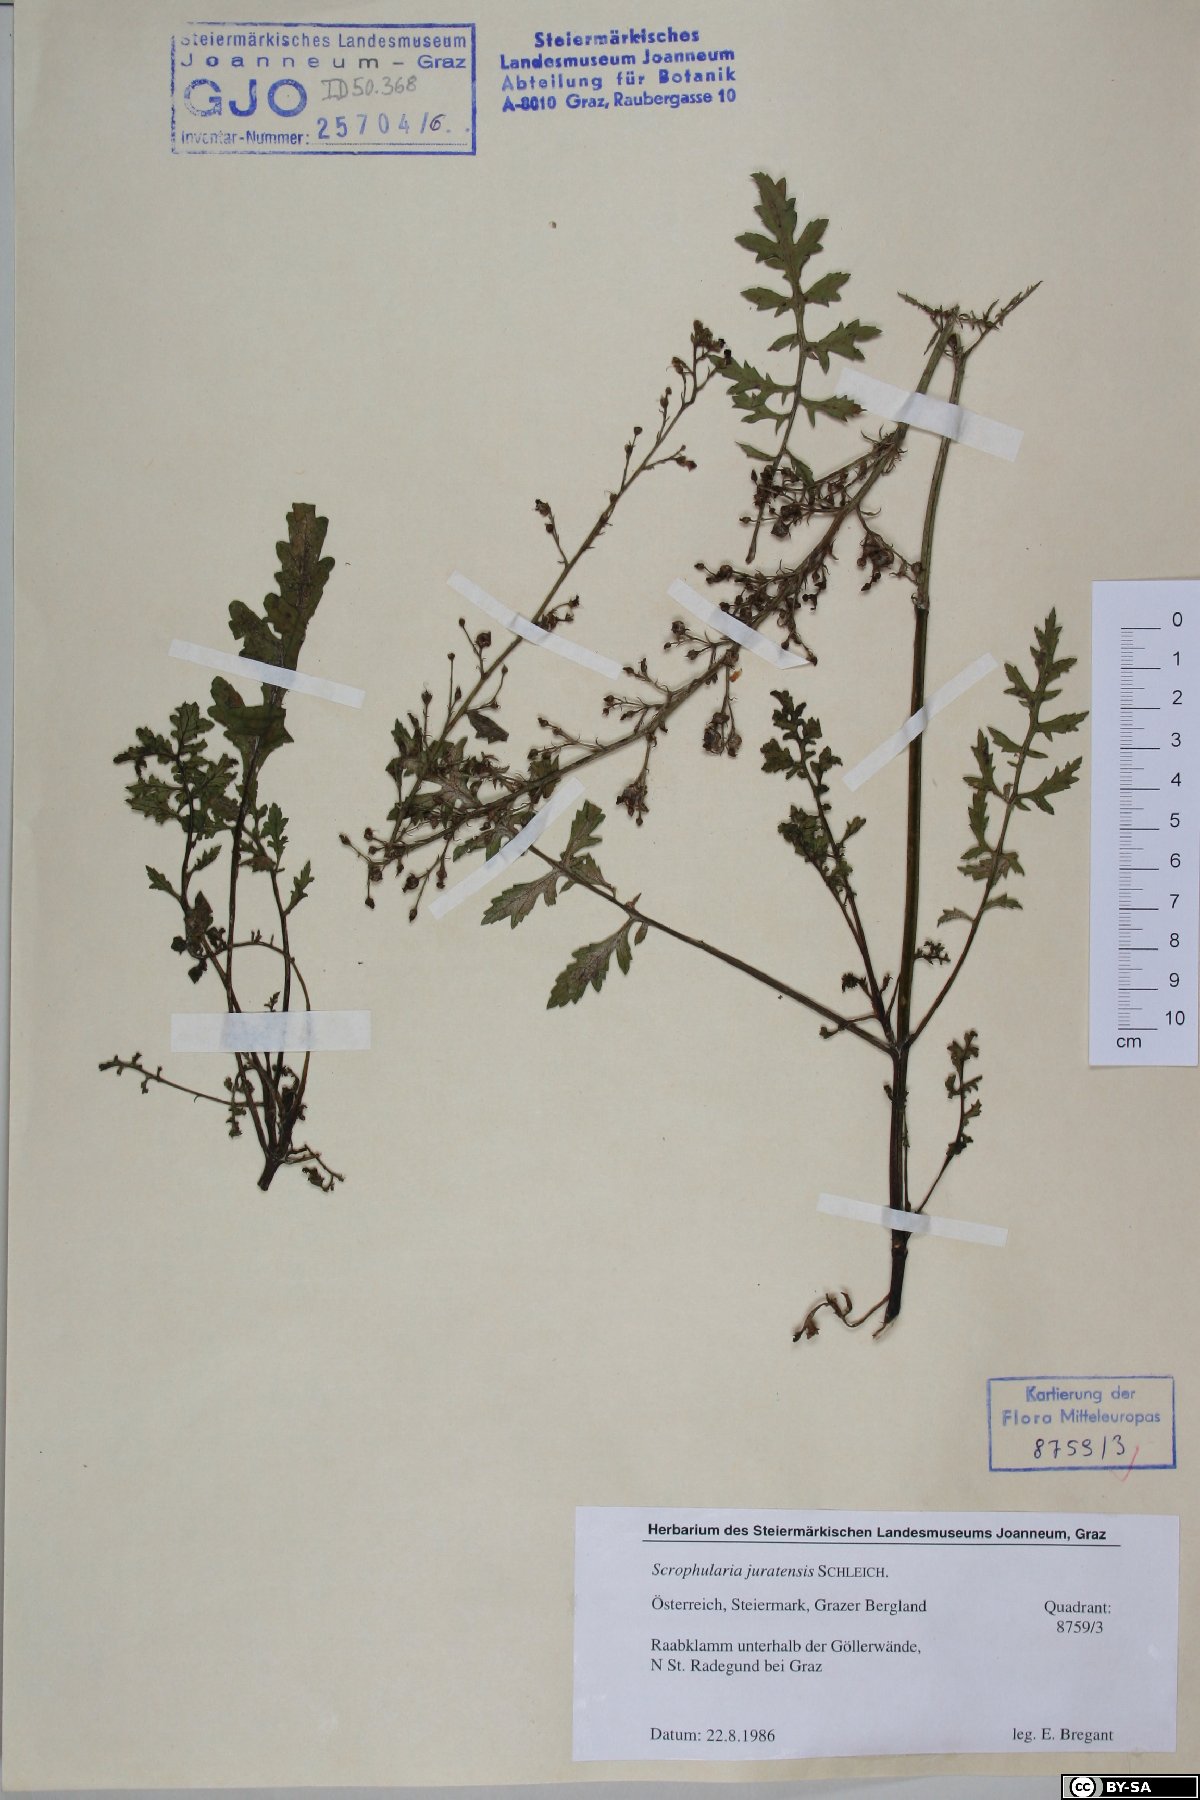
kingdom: Plantae
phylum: Tracheophyta
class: Magnoliopsida
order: Lamiales
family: Scrophulariaceae
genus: Scrophularia
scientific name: Scrophularia canina
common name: French figwort
